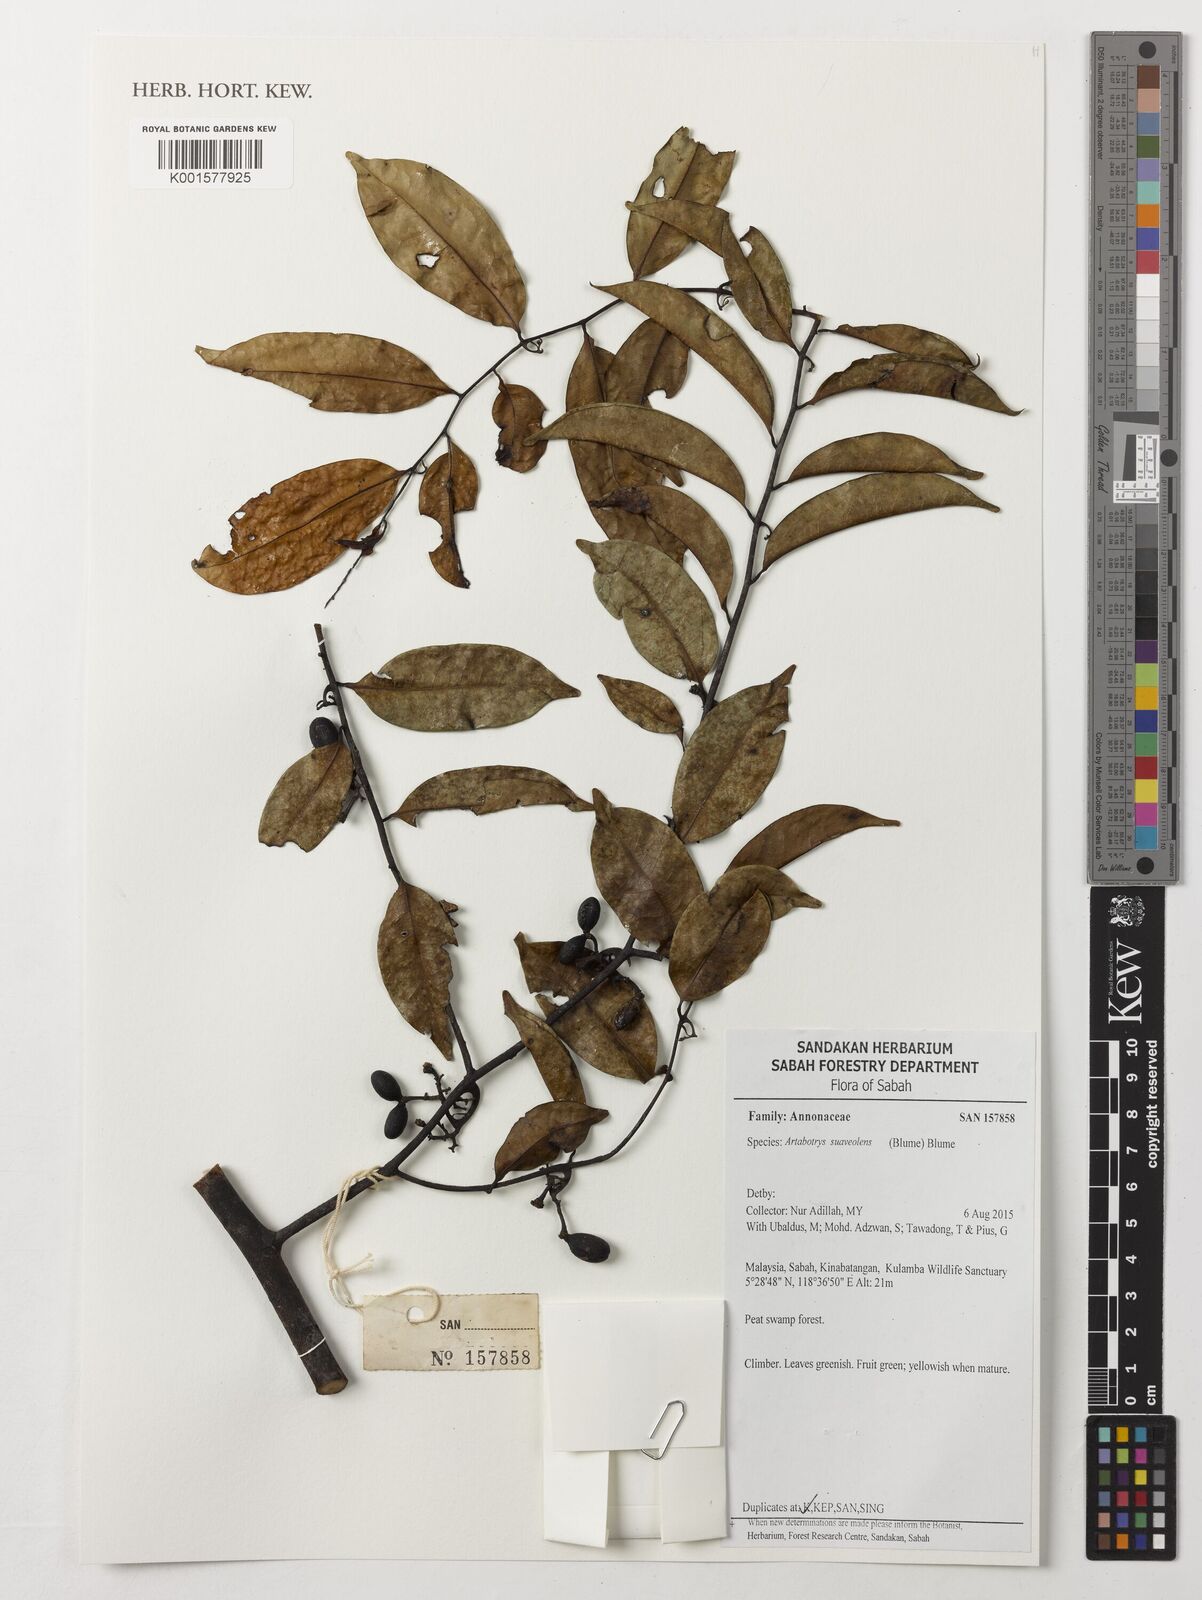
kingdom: Plantae
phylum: Tracheophyta
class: Magnoliopsida
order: Magnoliales
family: Annonaceae
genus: Artabotrys
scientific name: Artabotrys suaveolens
